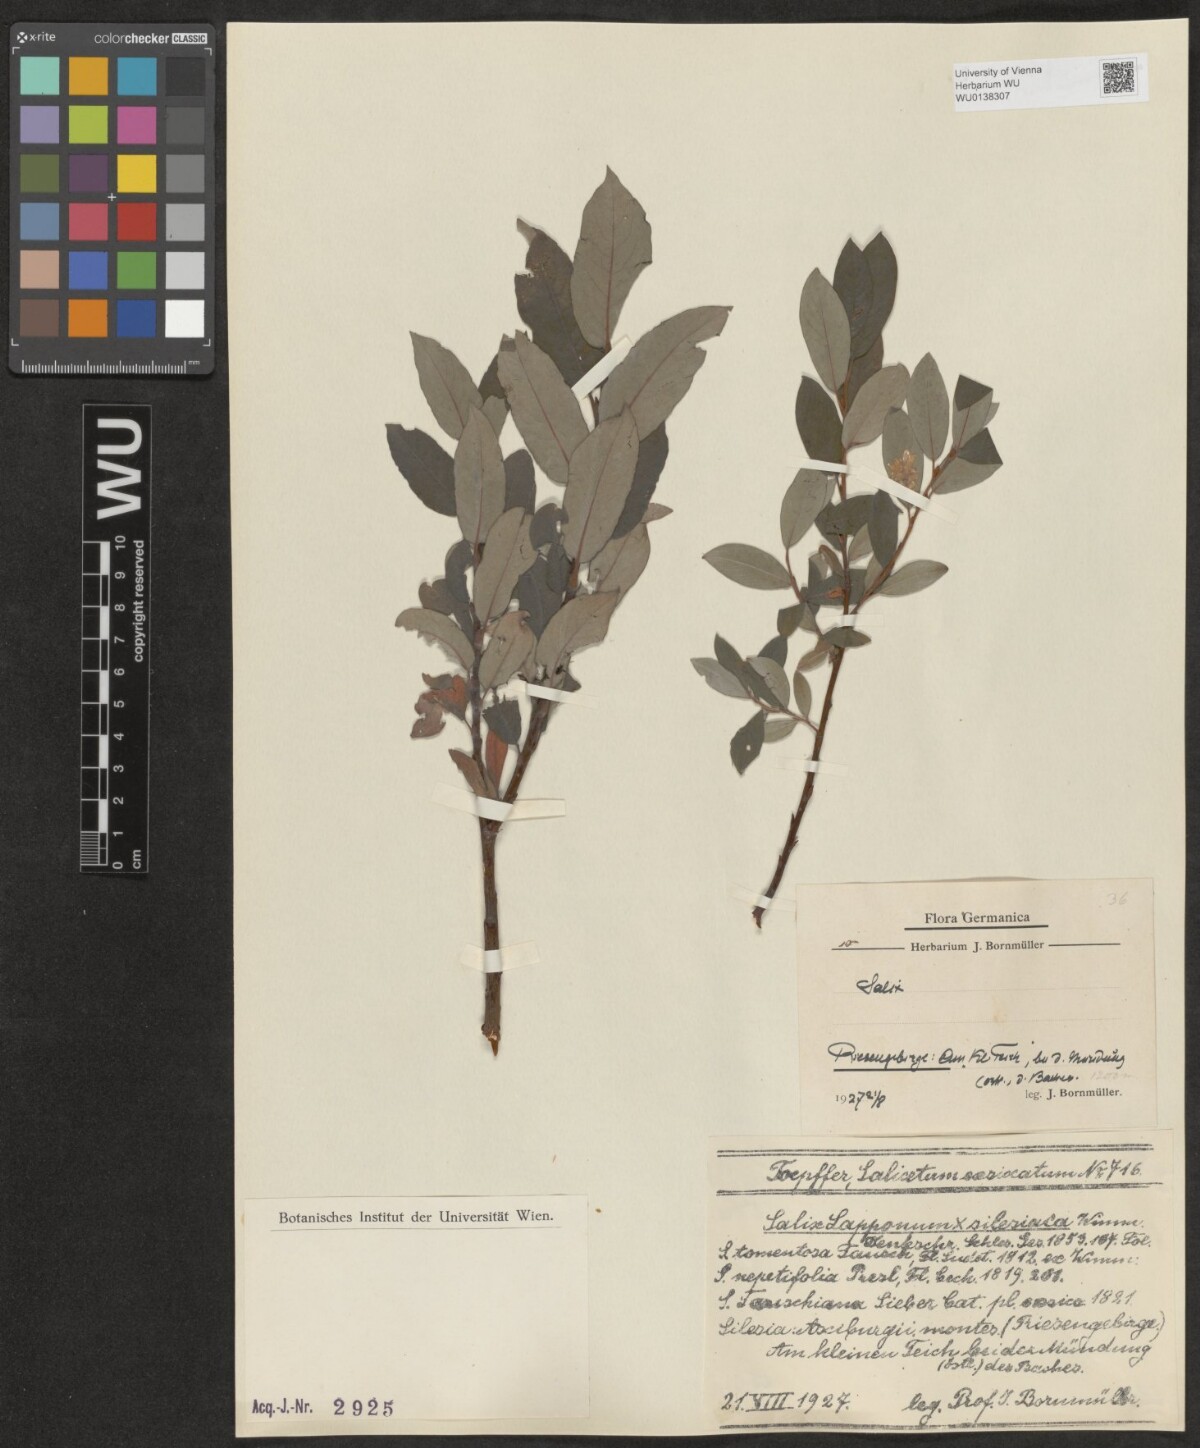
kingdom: Plantae
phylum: Tracheophyta
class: Magnoliopsida
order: Malpighiales
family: Salicaceae
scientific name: Salicaceae
